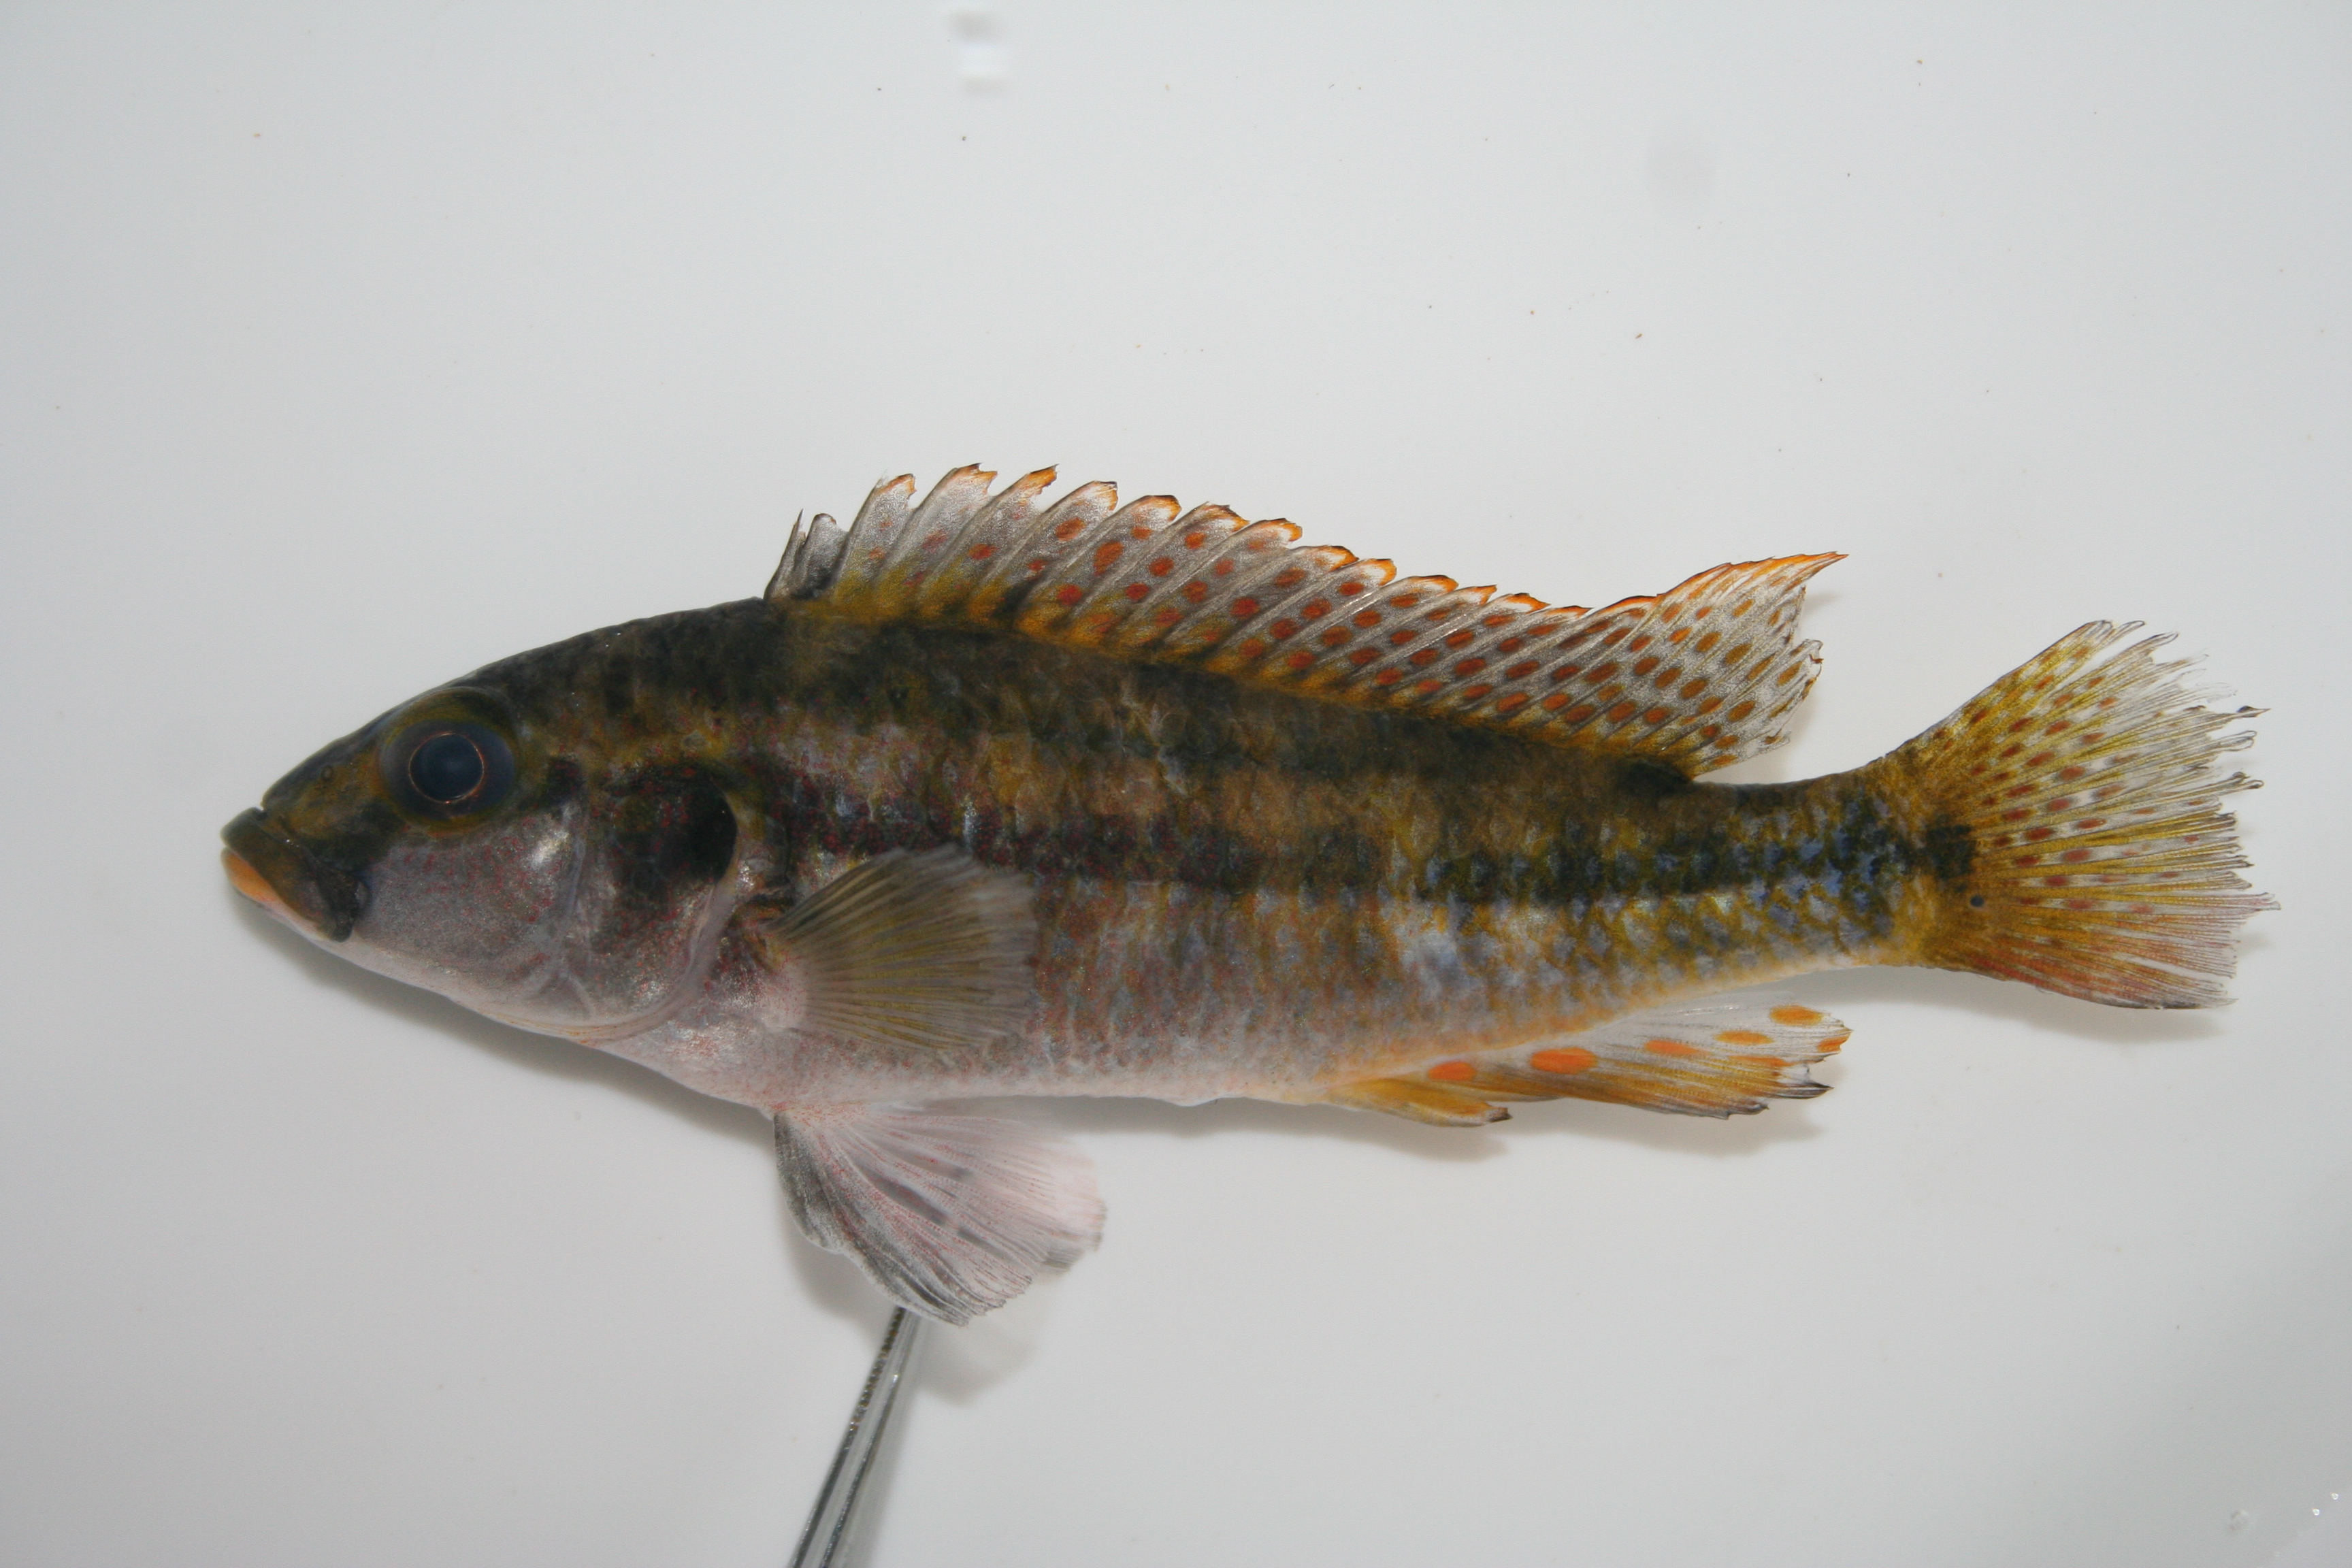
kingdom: Animalia
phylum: Chordata
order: Perciformes
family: Cichlidae
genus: Pharyngochromis
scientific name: Pharyngochromis
